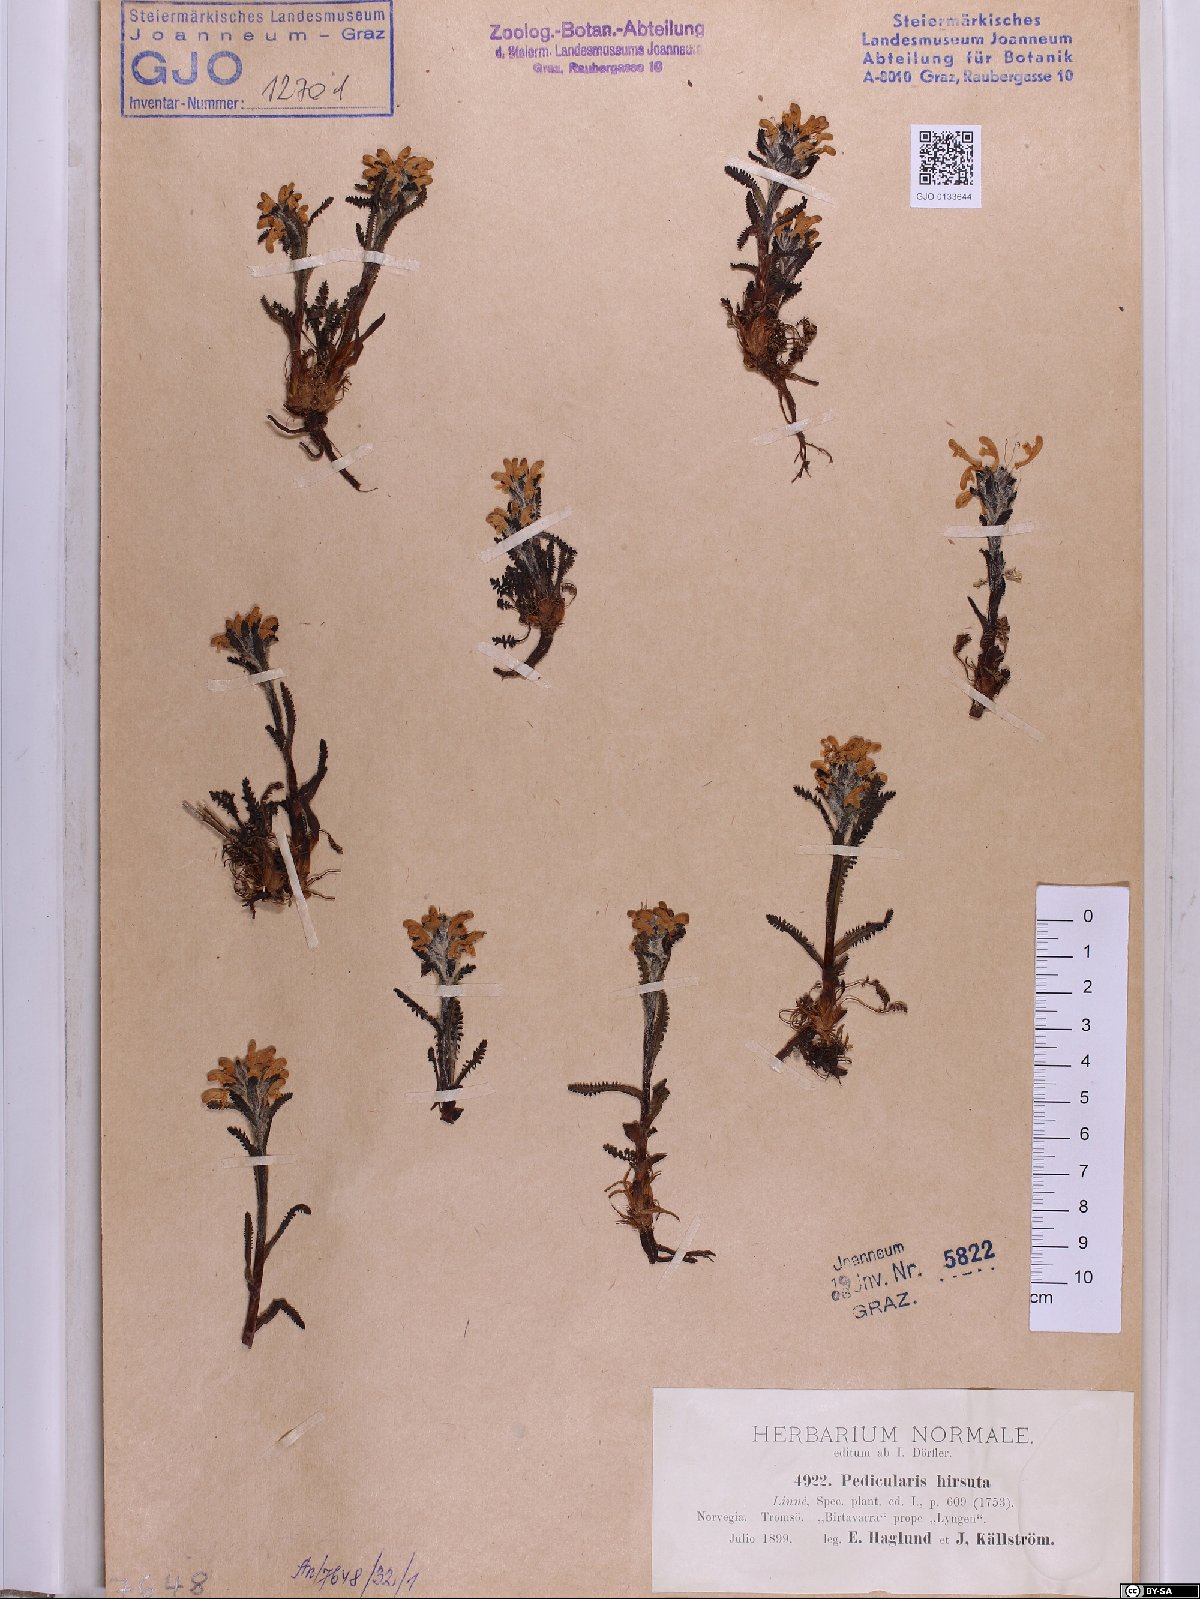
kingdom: Plantae
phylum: Tracheophyta
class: Magnoliopsida
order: Lamiales
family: Orobanchaceae
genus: Pedicularis
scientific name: Pedicularis hirsuta
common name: Hairy lousewort
